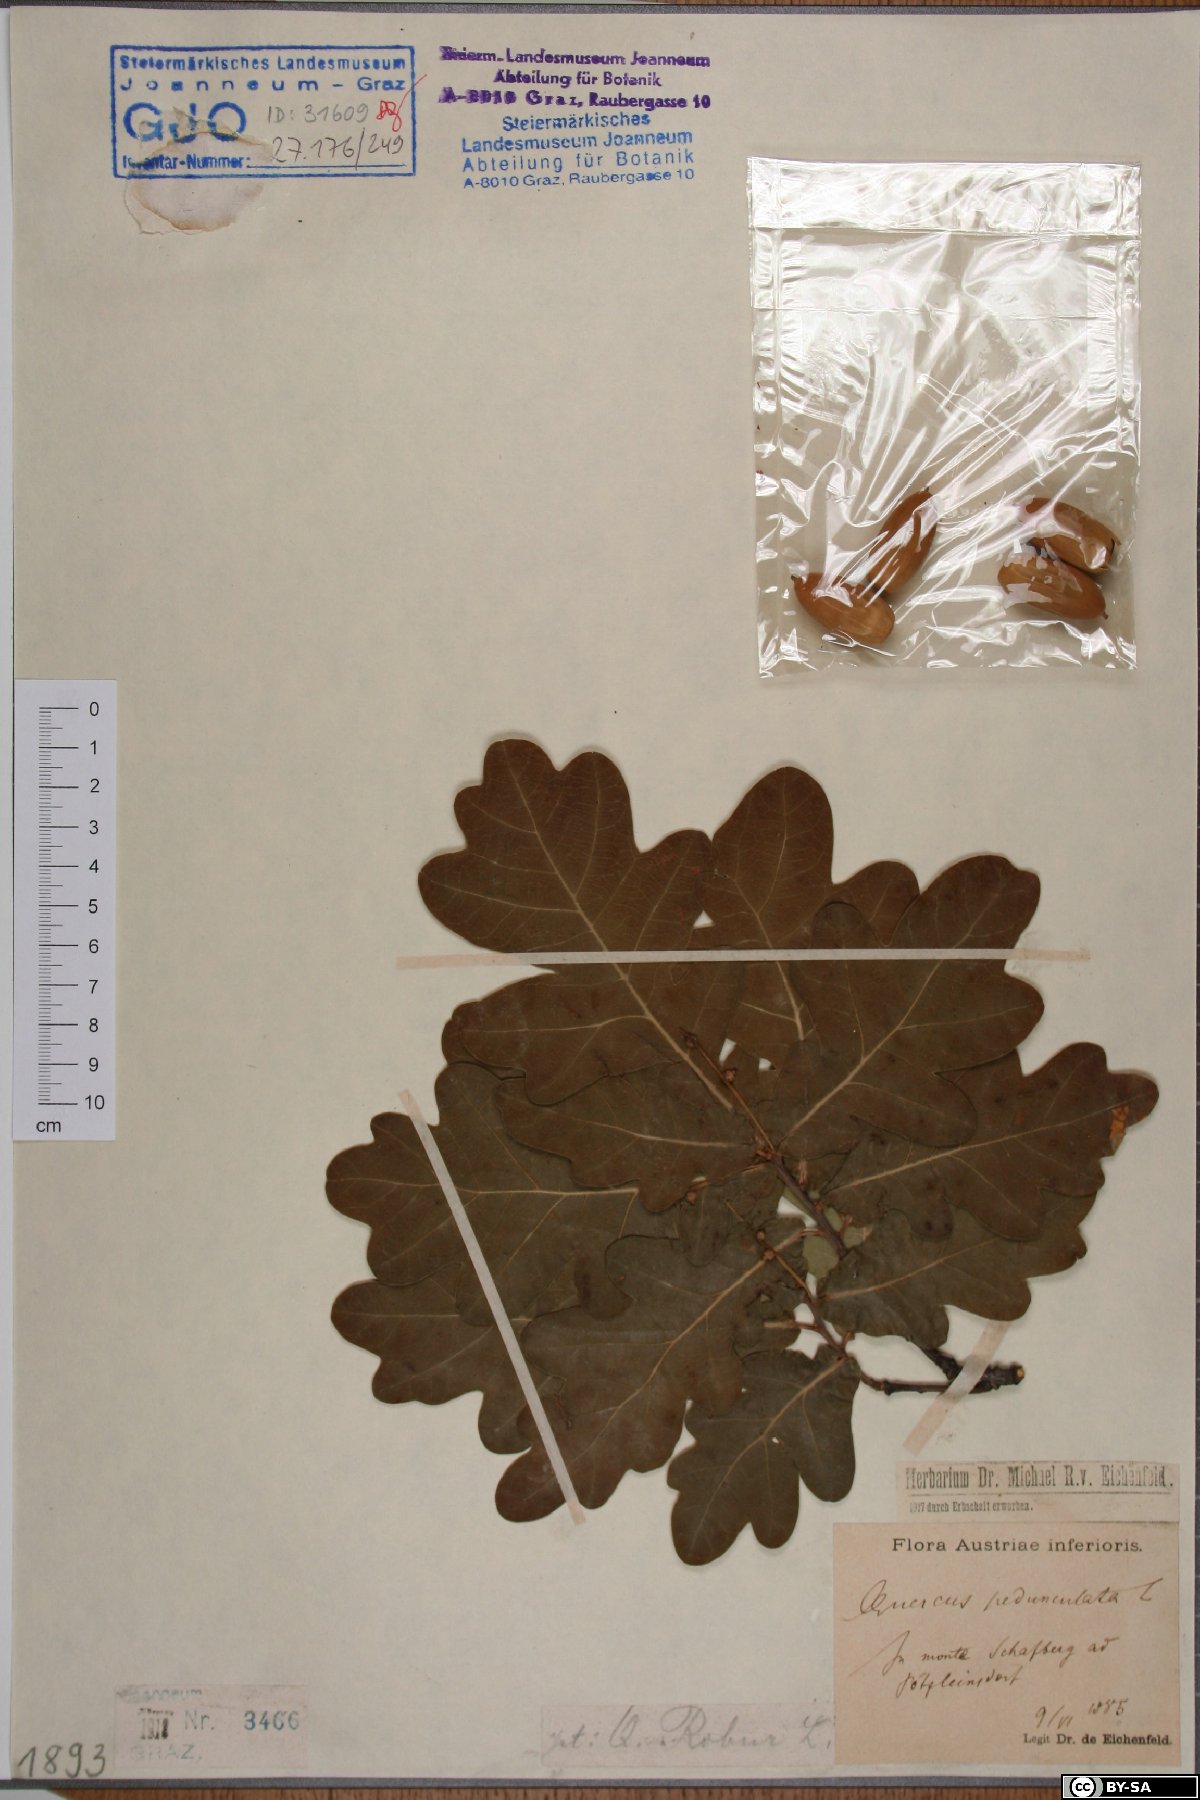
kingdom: Plantae
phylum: Tracheophyta
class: Magnoliopsida
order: Fagales
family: Fagaceae
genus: Quercus
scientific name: Quercus robur
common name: Pedunculate oak
